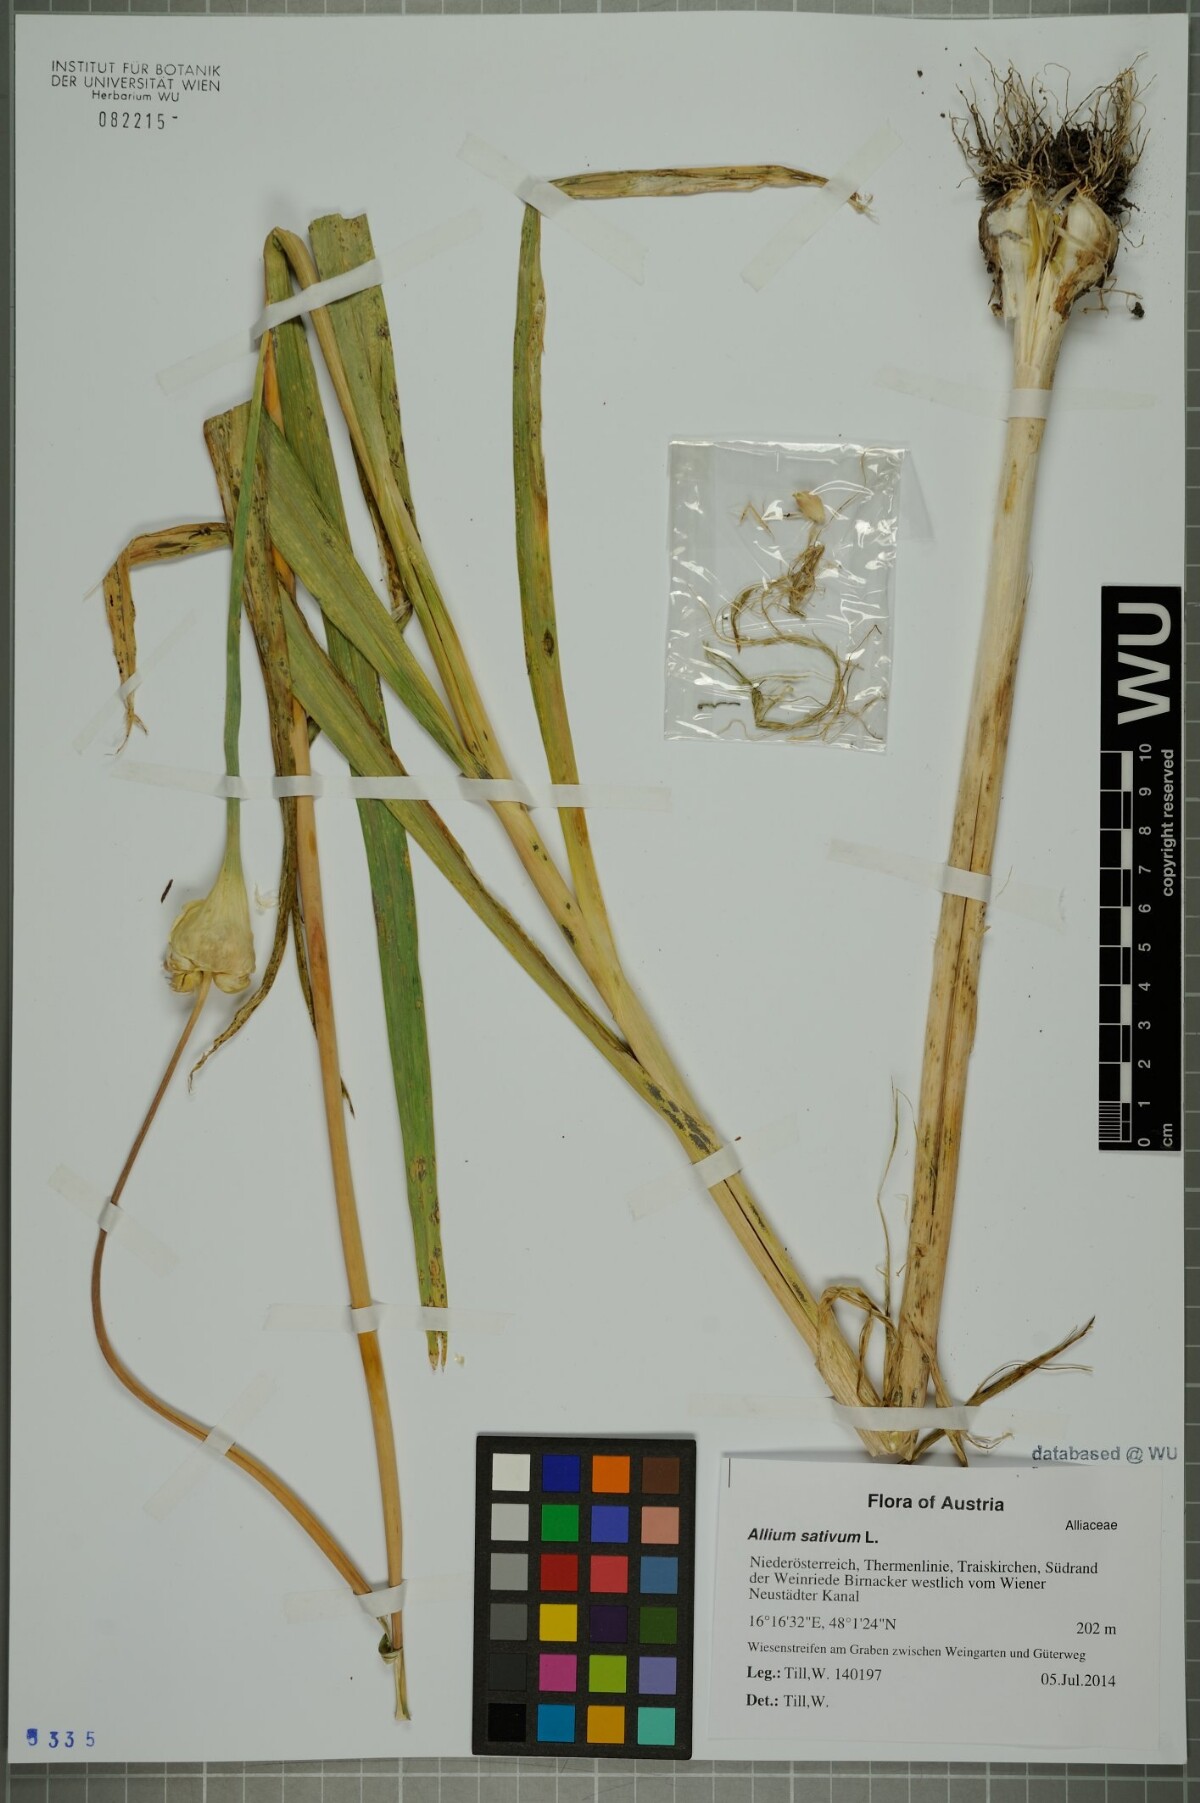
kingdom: Plantae
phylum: Tracheophyta
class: Liliopsida
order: Asparagales
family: Amaryllidaceae
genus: Allium
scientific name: Allium sativum
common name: Garlic
